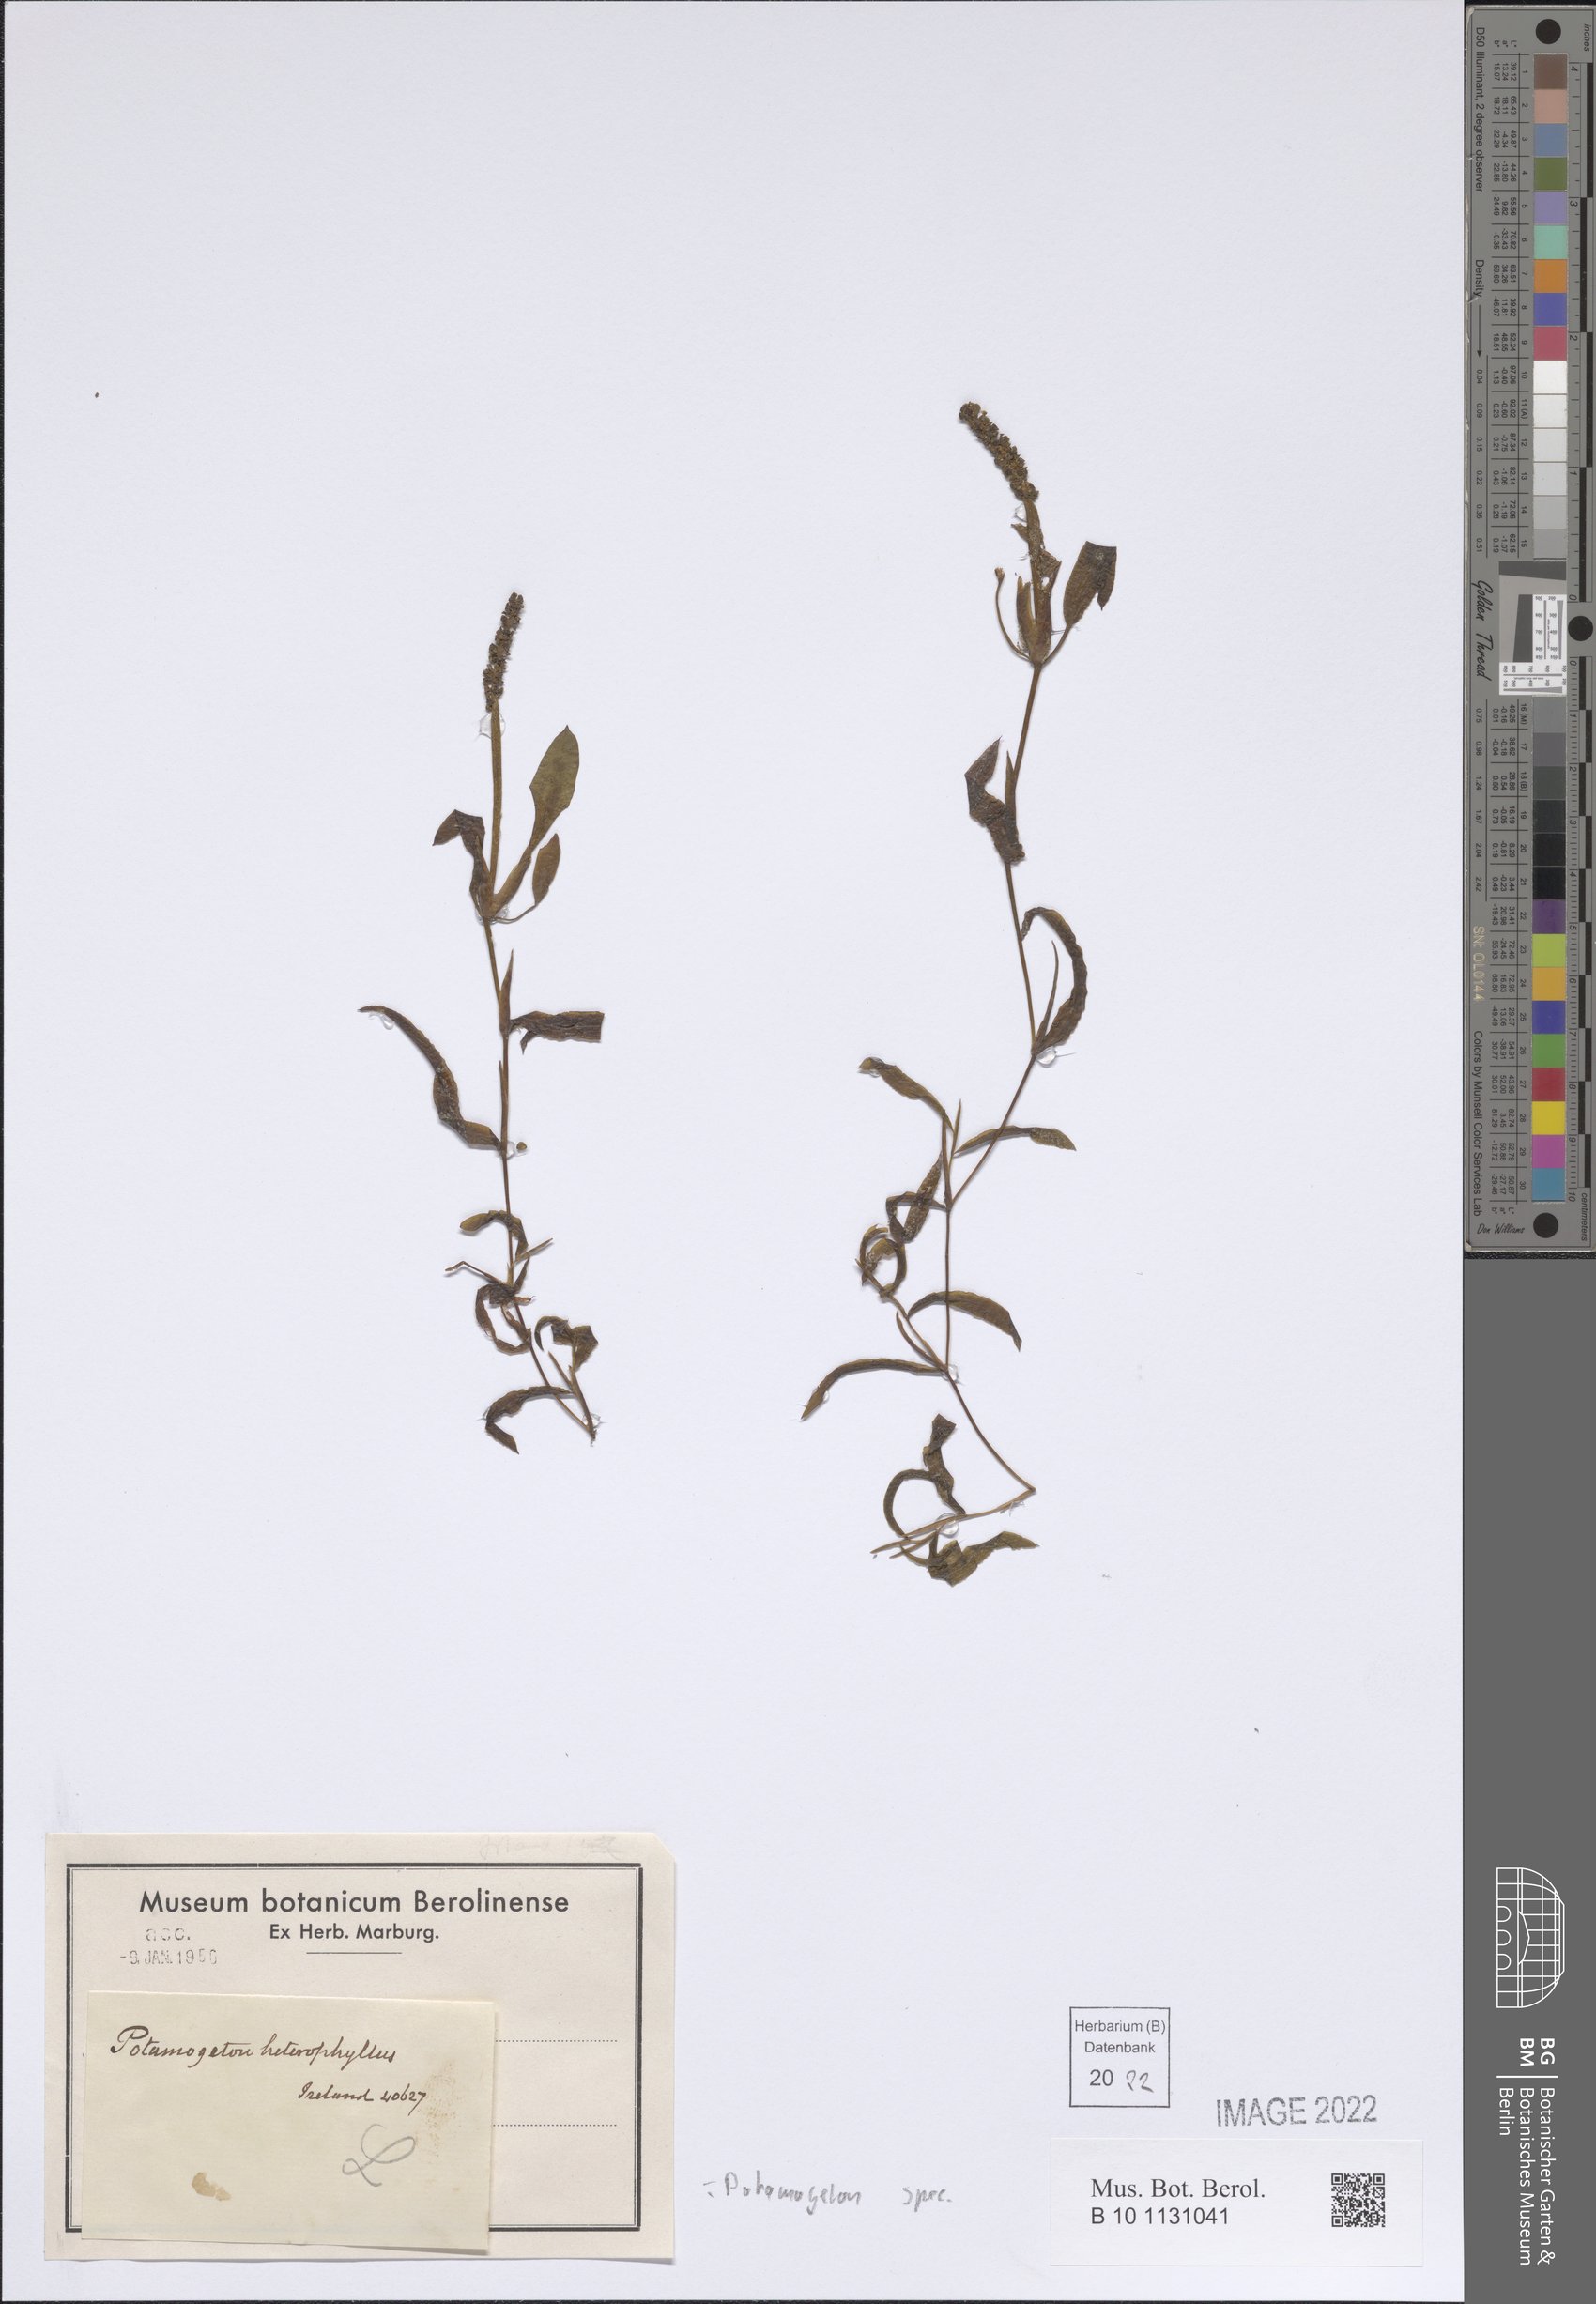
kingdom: Plantae
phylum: Tracheophyta
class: Liliopsida
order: Alismatales
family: Potamogetonaceae
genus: Potamogeton
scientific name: Potamogeton
